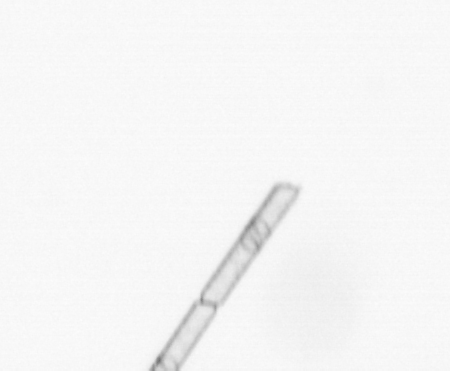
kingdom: Chromista
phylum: Ochrophyta
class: Bacillariophyceae
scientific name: Bacillariophyceae
